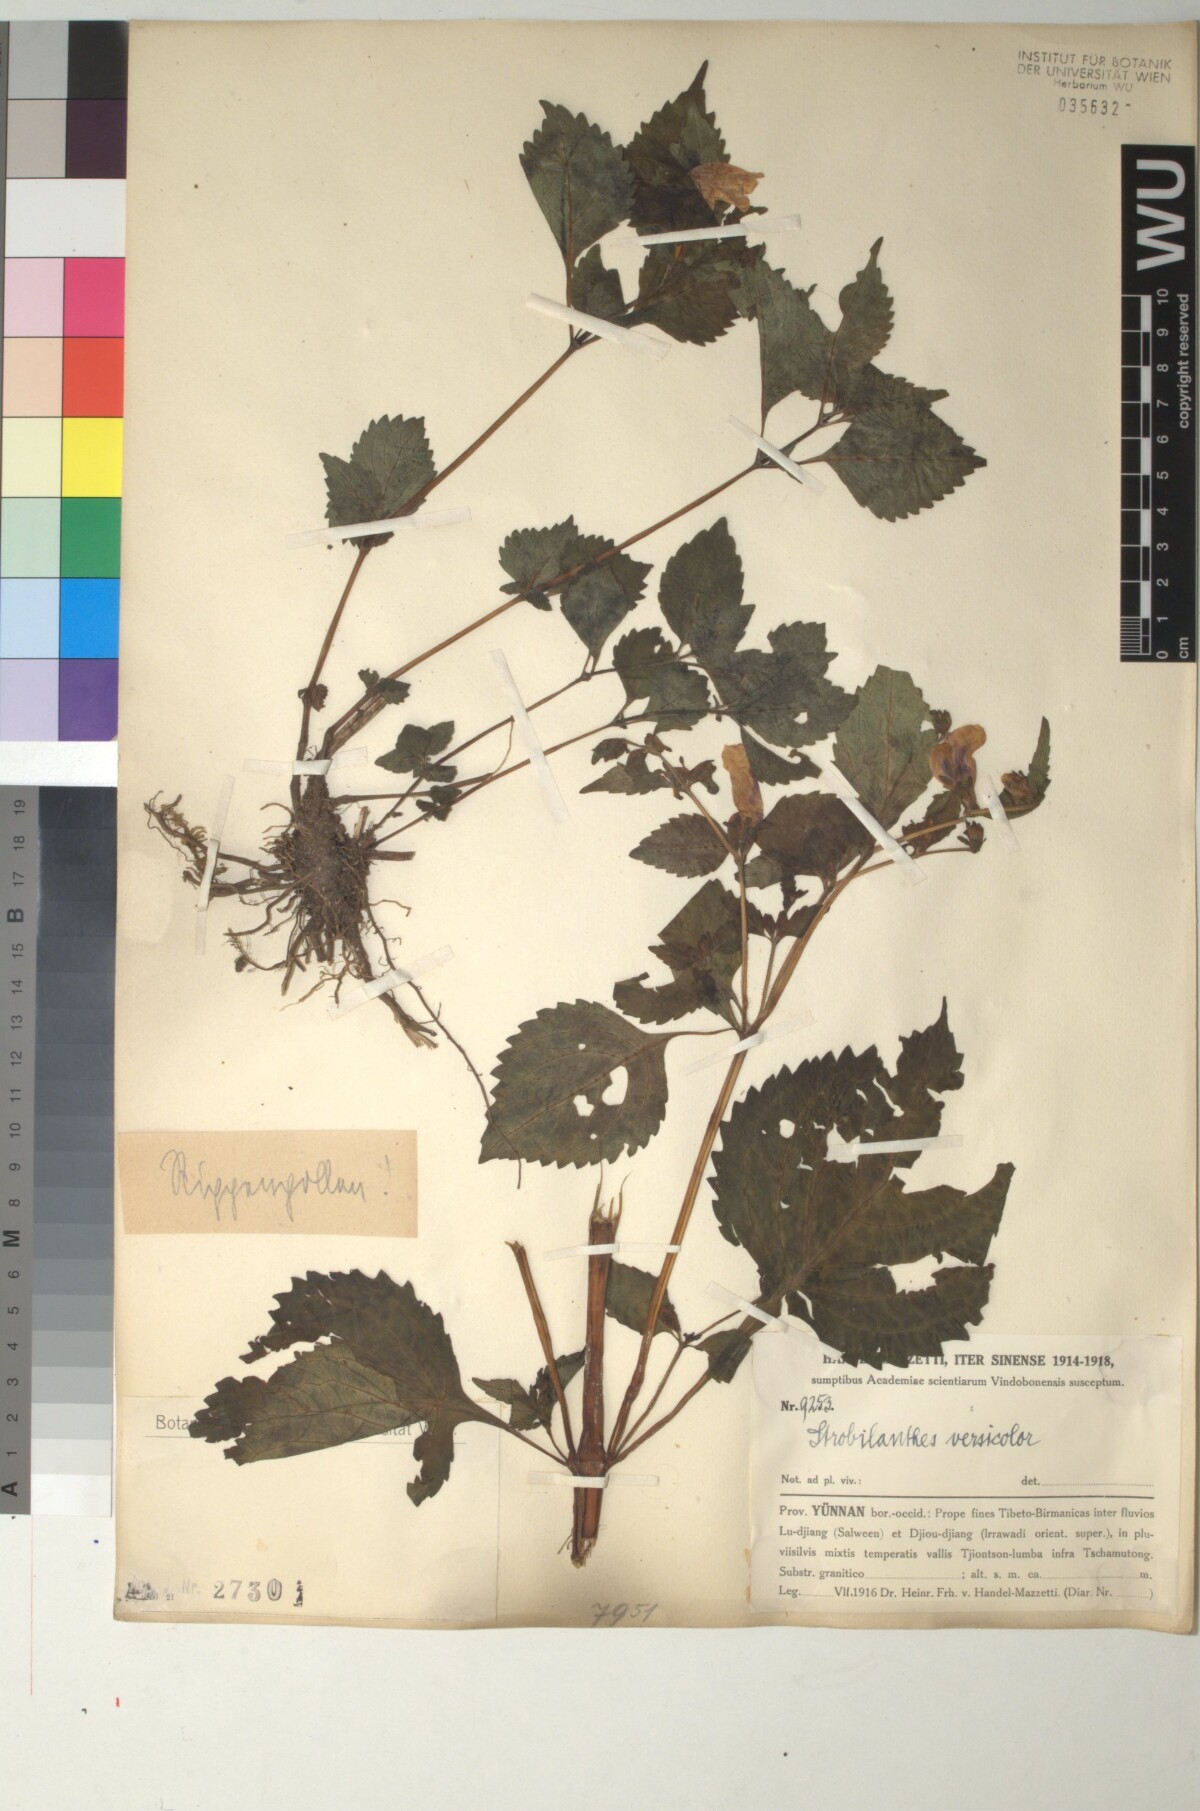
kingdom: Plantae
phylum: Tracheophyta
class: Magnoliopsida
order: Lamiales
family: Acanthaceae
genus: Strobilanthes
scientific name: Strobilanthes versicolor
